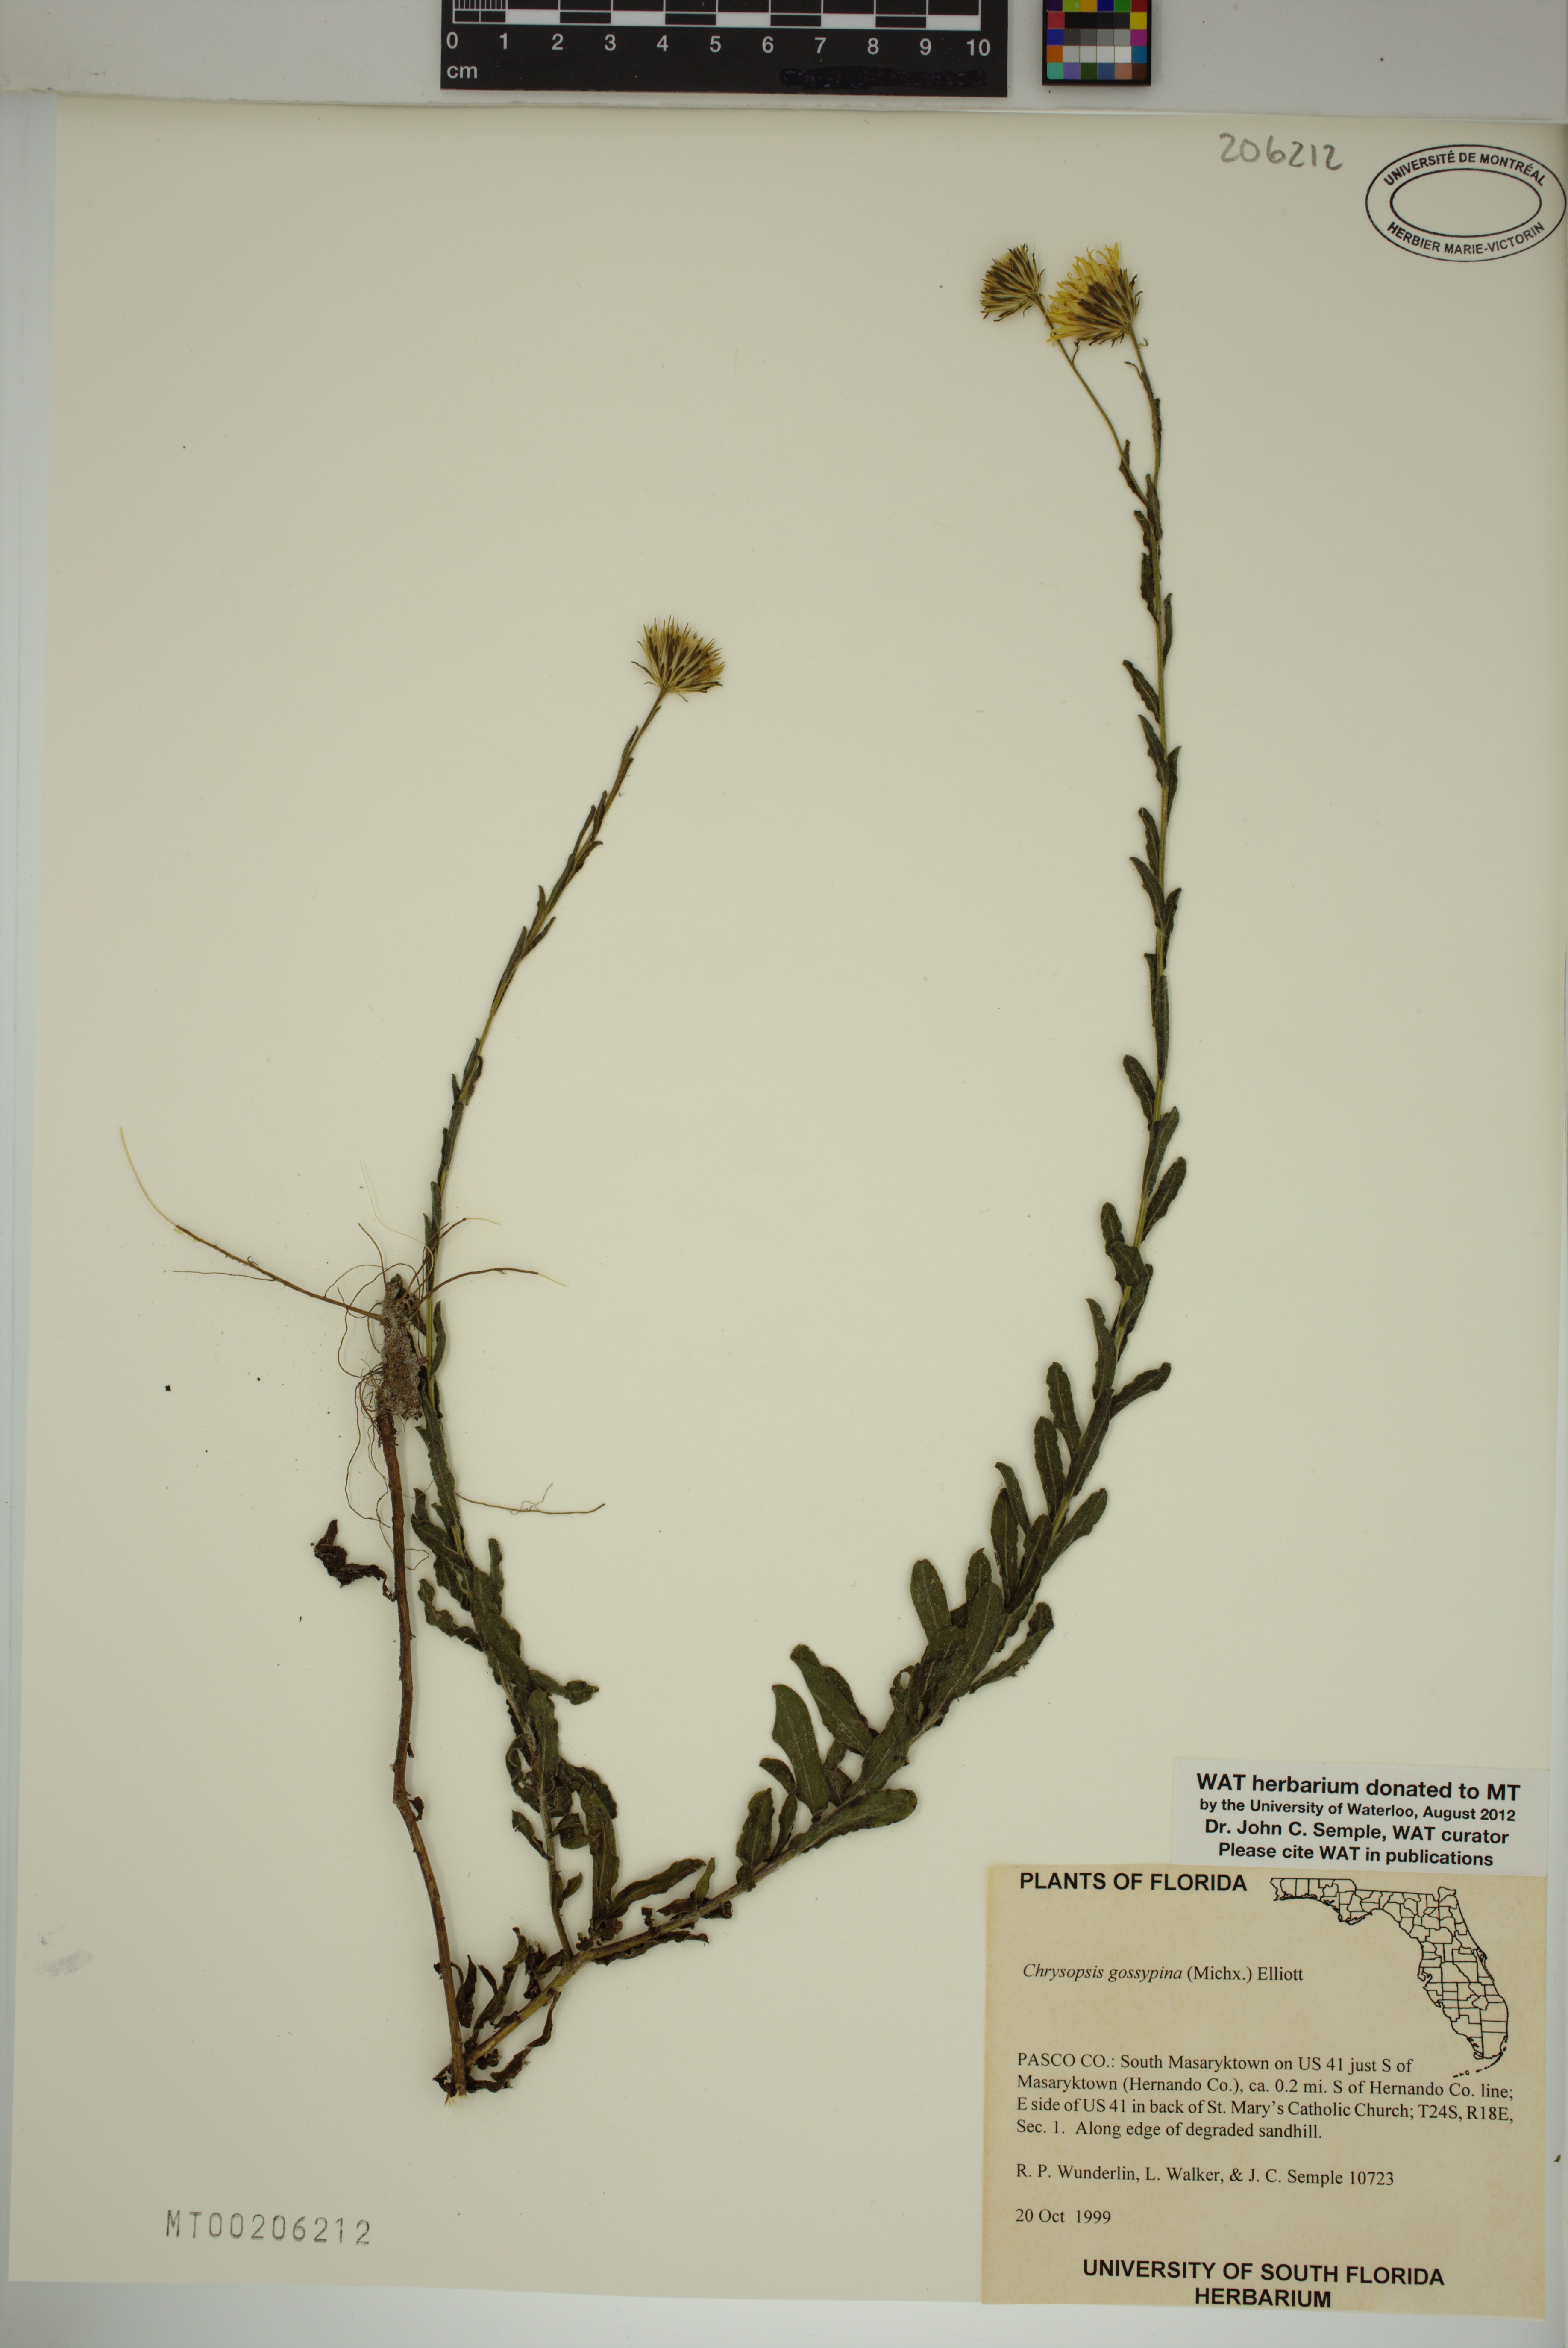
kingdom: Plantae
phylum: Tracheophyta
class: Magnoliopsida
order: Asterales
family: Asteraceae
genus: Chrysopsis
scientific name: Chrysopsis gossypina
